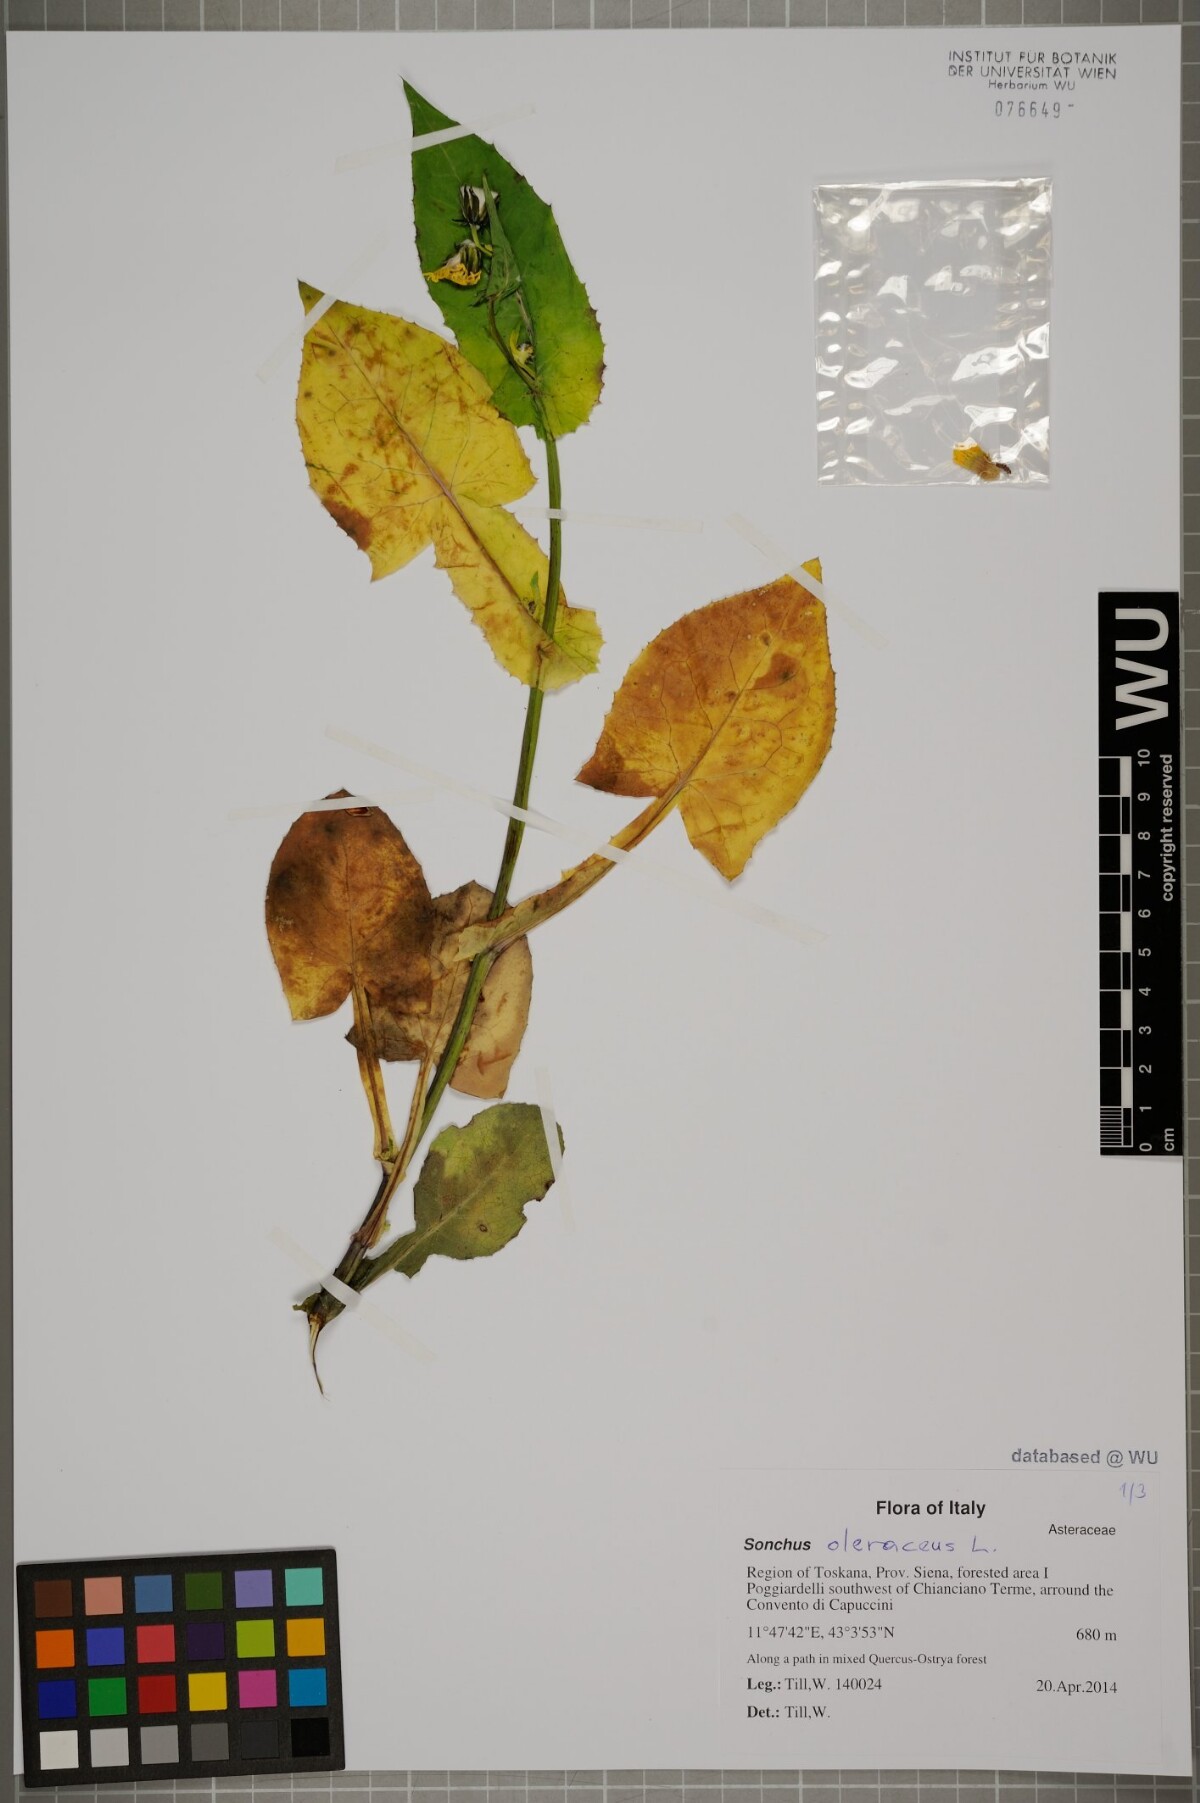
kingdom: Plantae
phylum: Tracheophyta
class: Magnoliopsida
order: Asterales
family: Asteraceae
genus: Sonchus
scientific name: Sonchus oleraceus
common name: Common sowthistle
